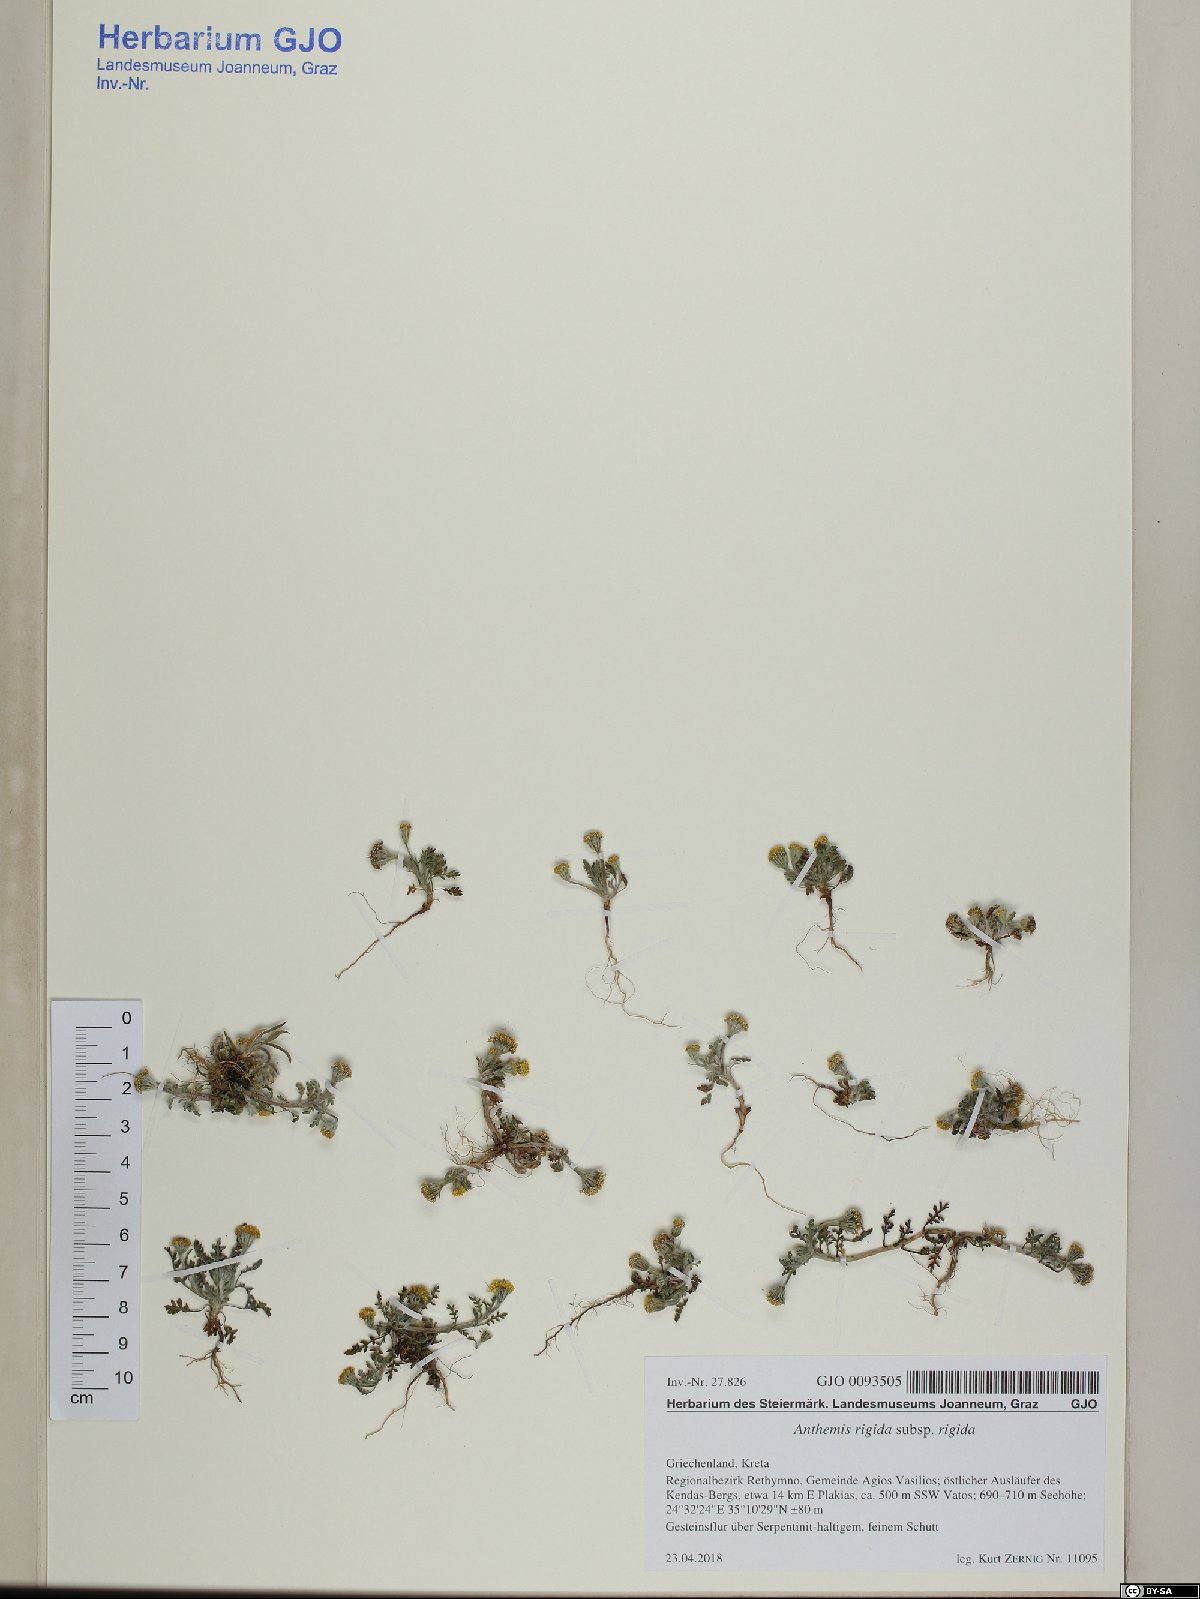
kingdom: Plantae
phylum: Tracheophyta
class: Magnoliopsida
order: Asterales
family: Asteraceae
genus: Anthemis
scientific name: Anthemis rigida
